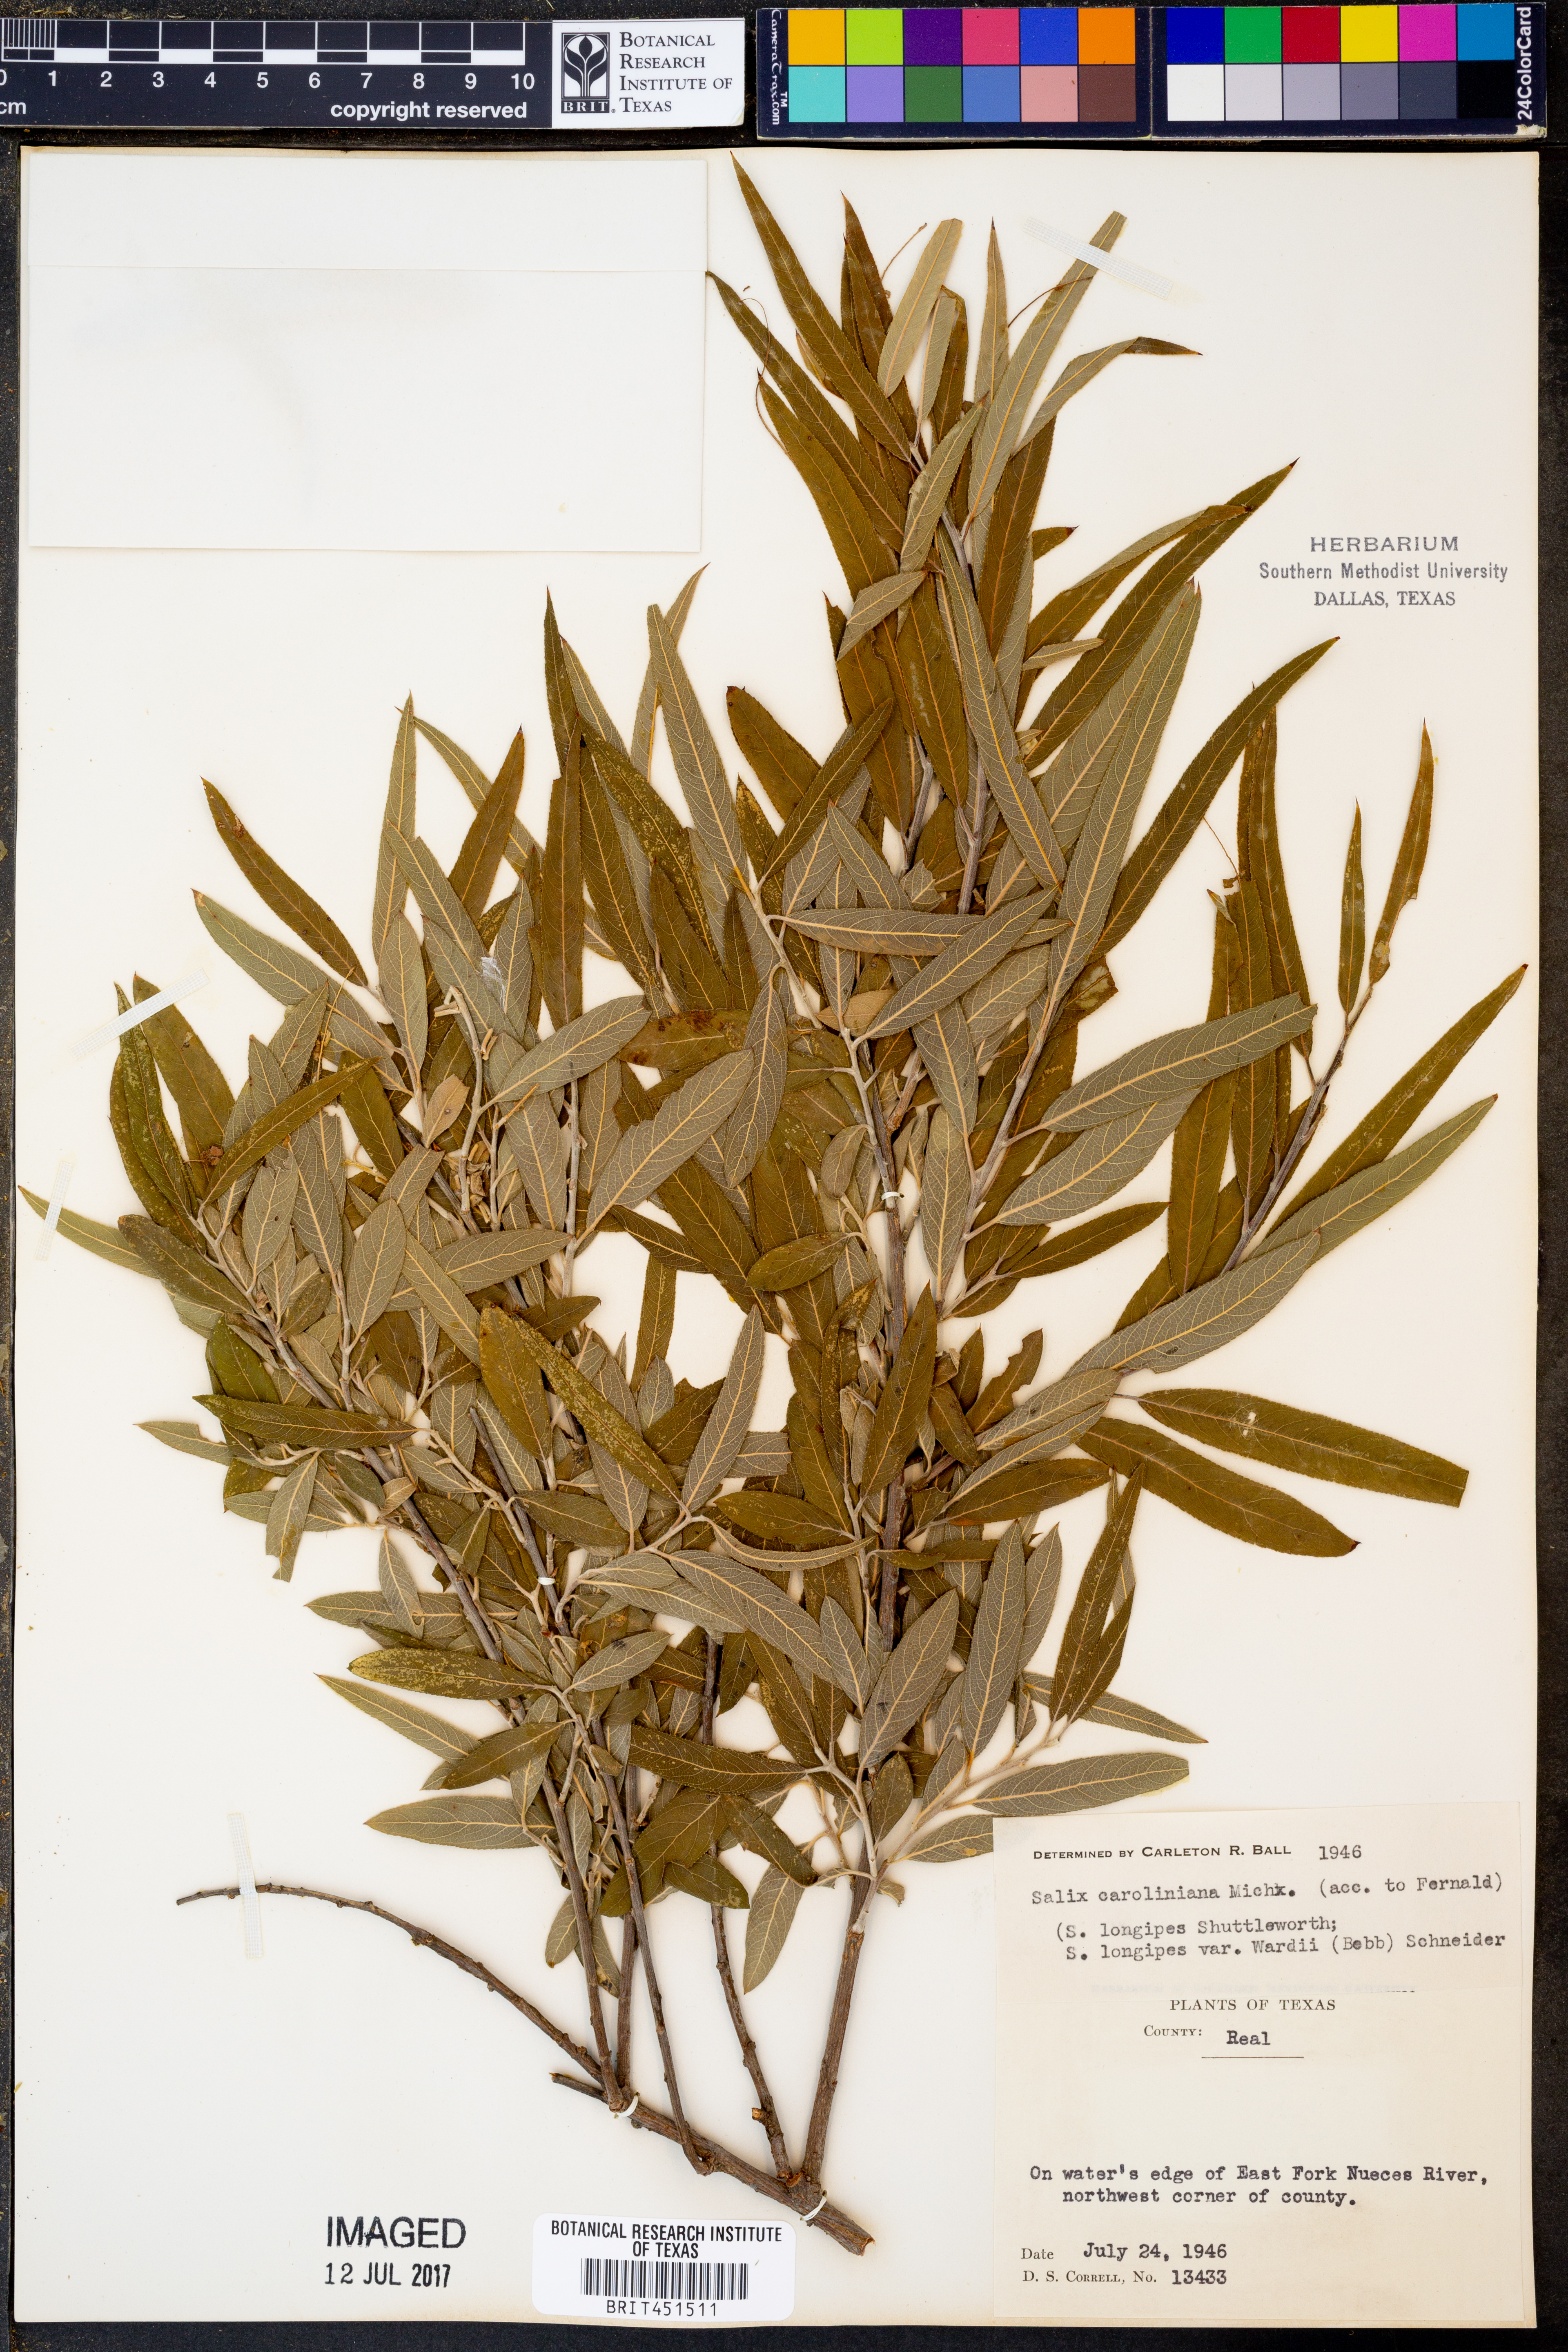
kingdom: Plantae
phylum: Tracheophyta
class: Magnoliopsida
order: Malpighiales
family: Salicaceae
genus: Salix
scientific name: Salix caroliniana
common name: Carolina willow
